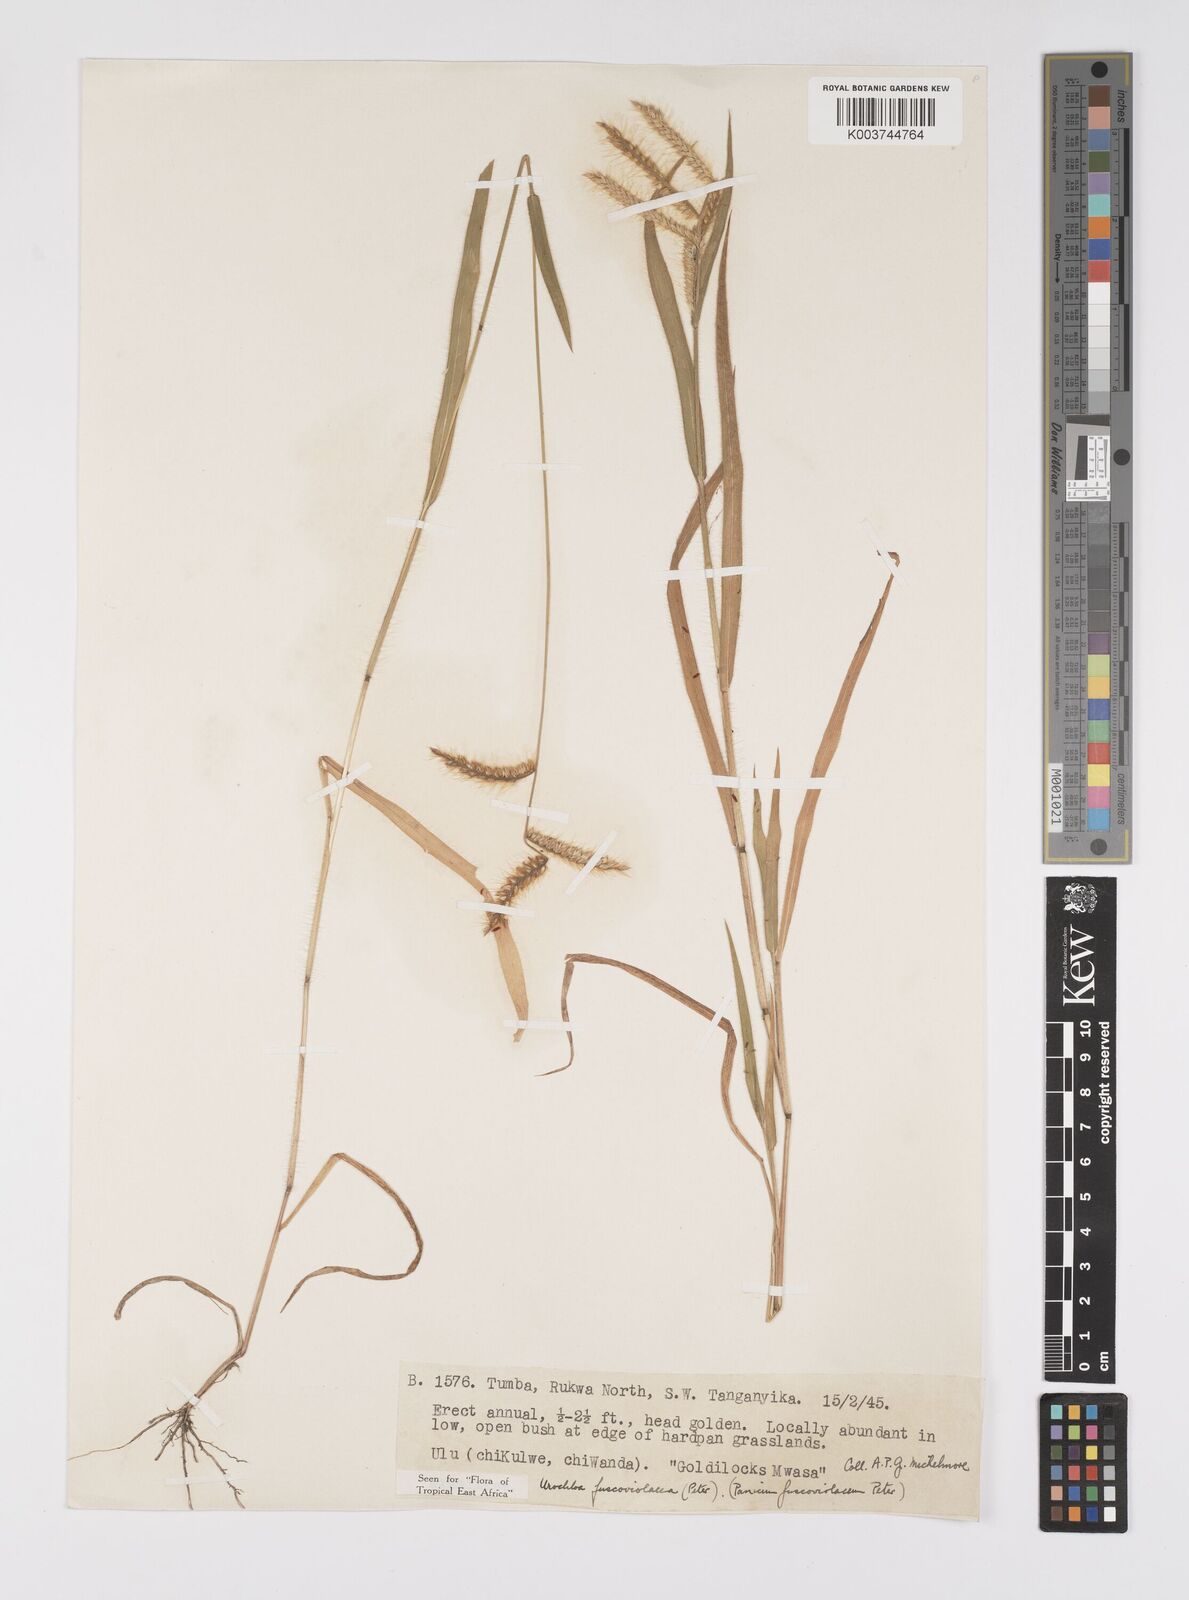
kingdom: Plantae
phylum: Tracheophyta
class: Liliopsida
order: Poales
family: Poaceae
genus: Urochloa
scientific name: Urochloa echinolaenoides
